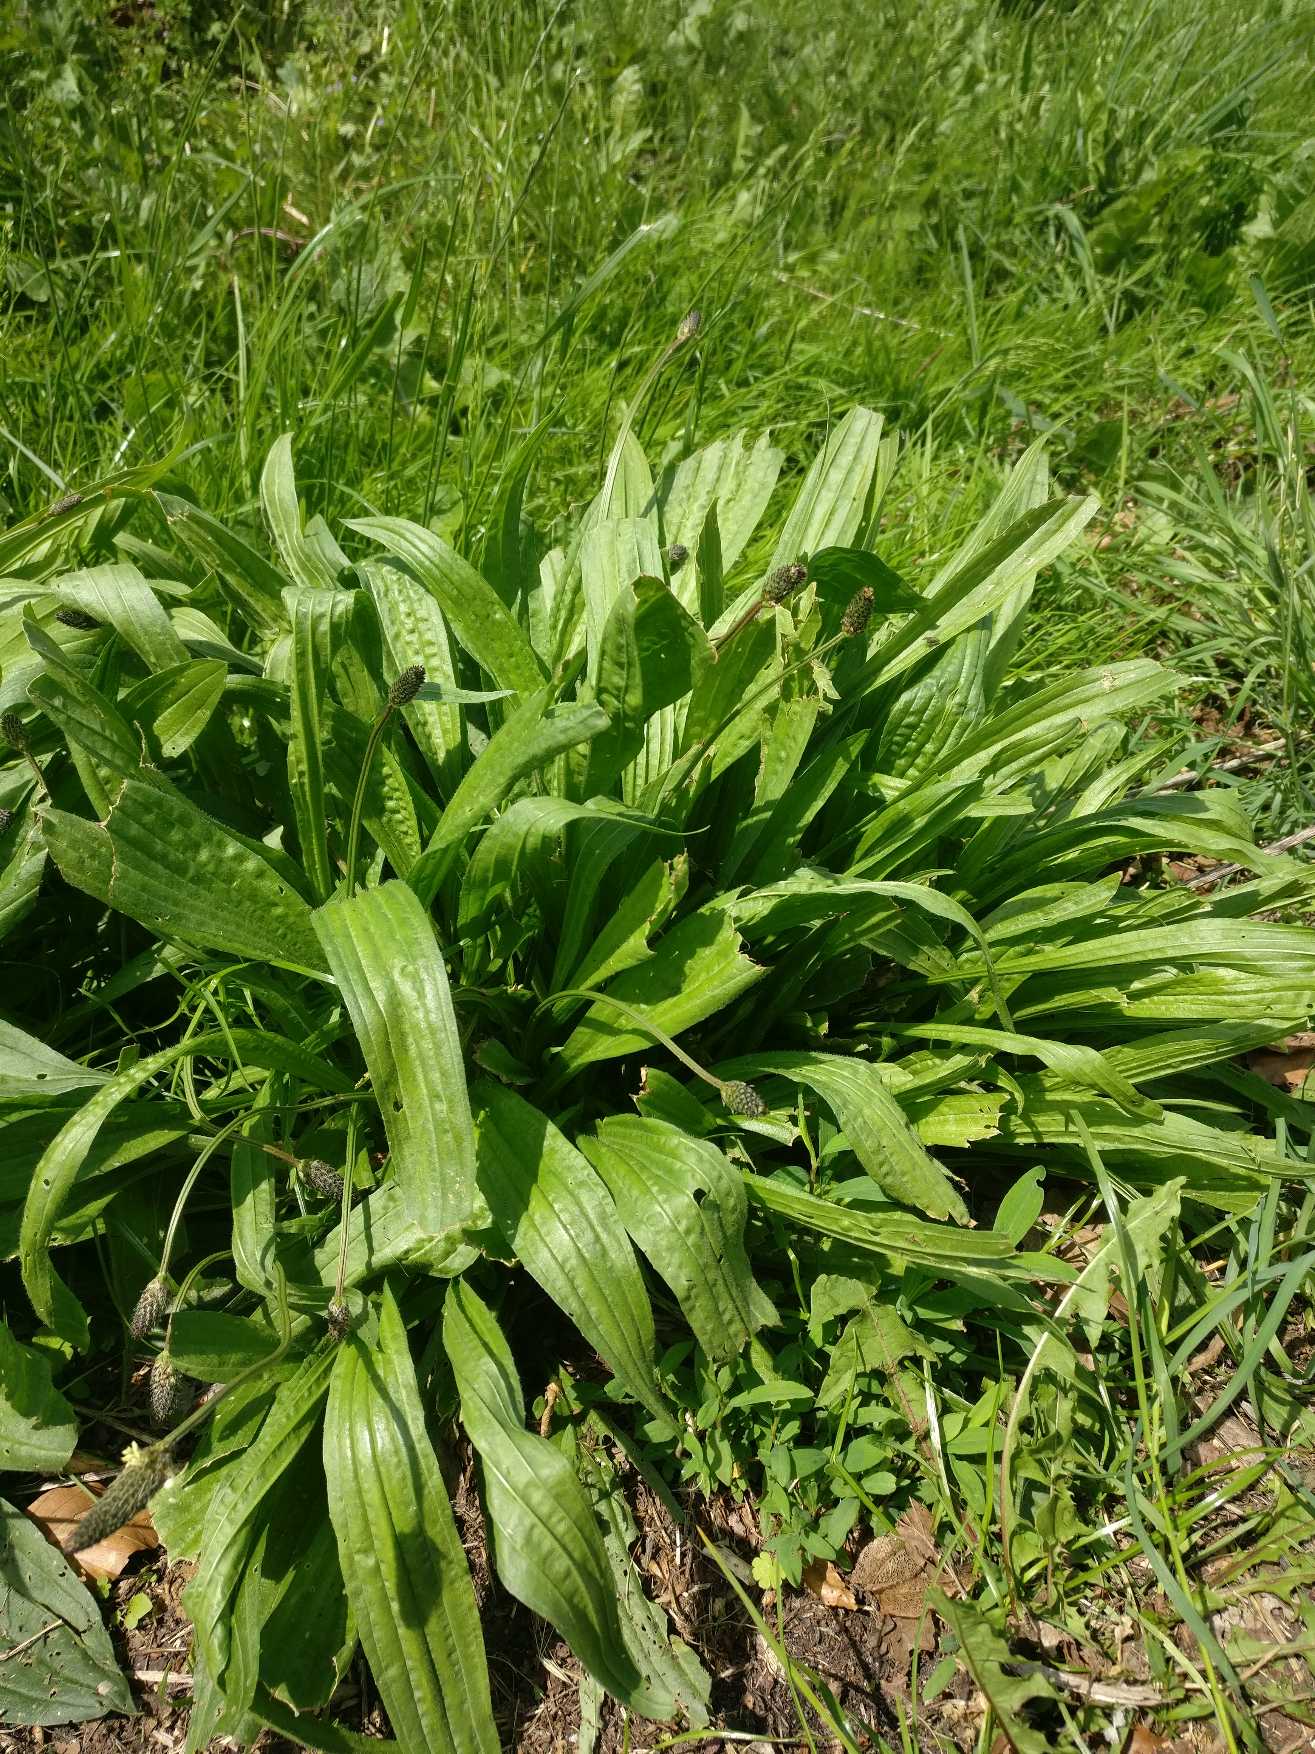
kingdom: Plantae
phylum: Tracheophyta
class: Magnoliopsida
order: Lamiales
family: Plantaginaceae
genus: Plantago
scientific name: Plantago lanceolata
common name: Lancet-vejbred
